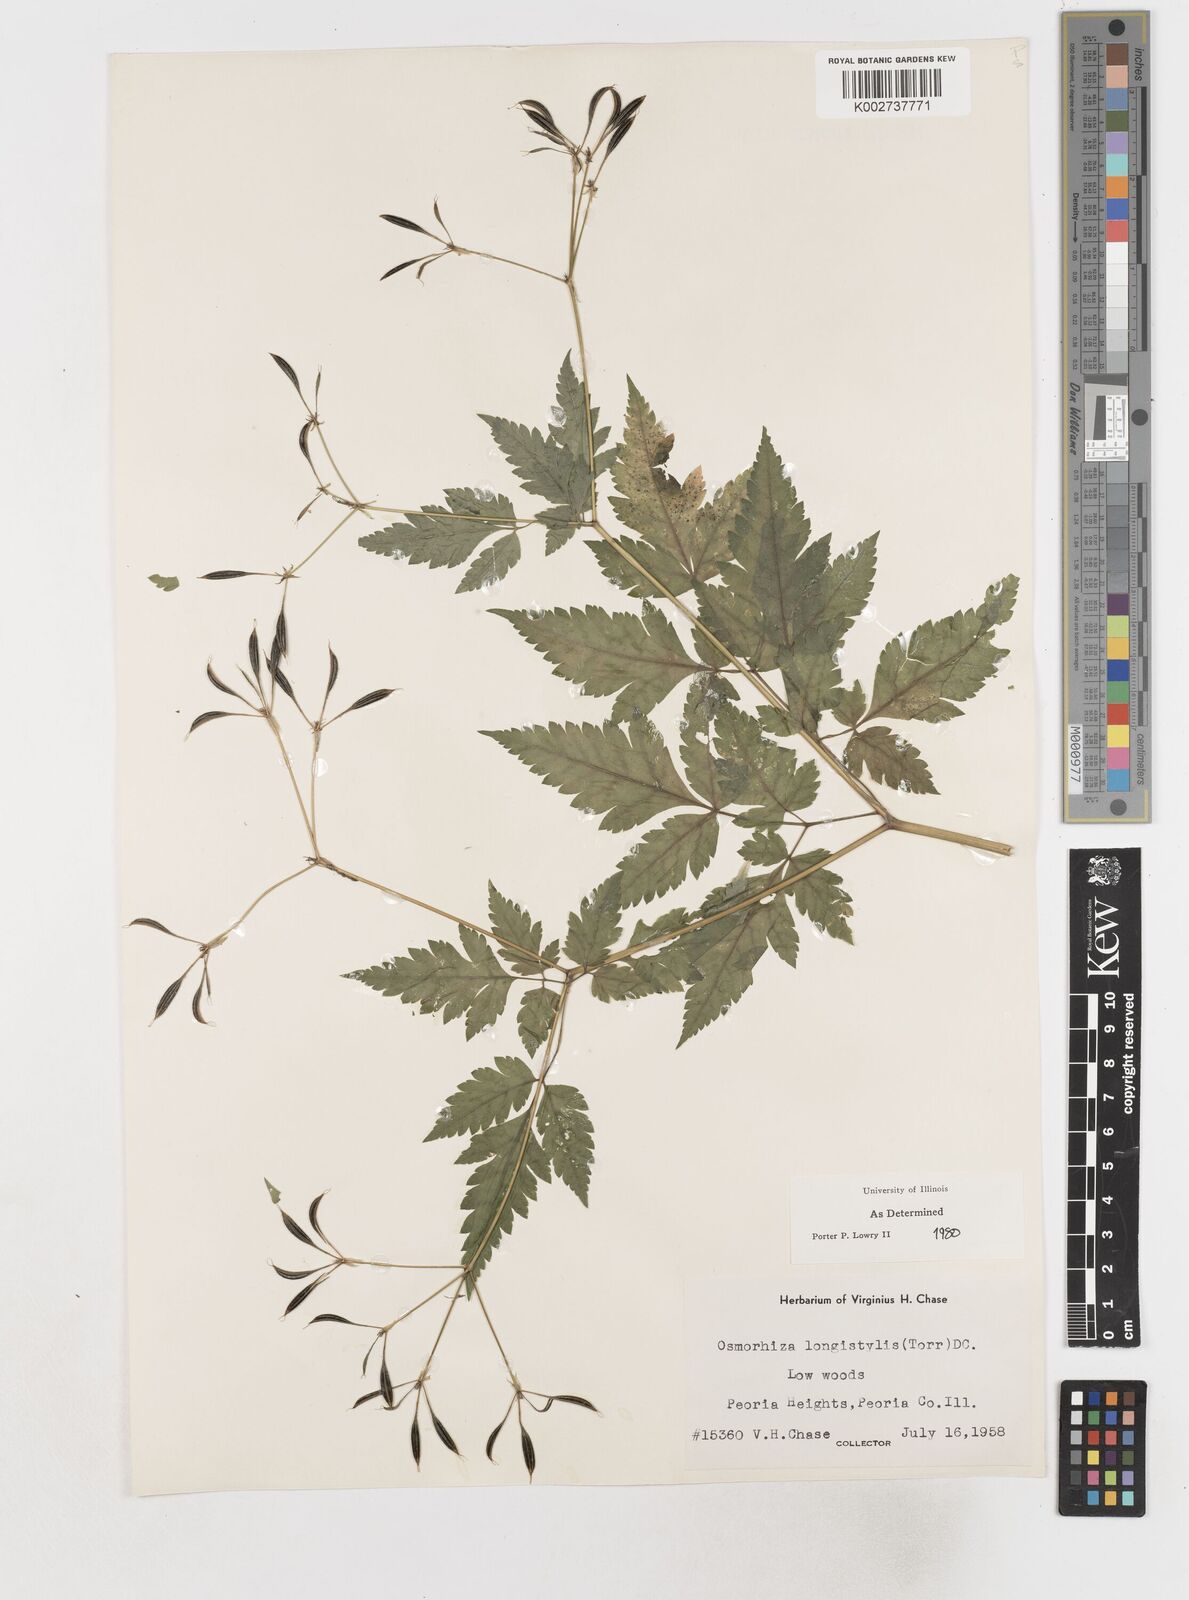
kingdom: Plantae
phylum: Tracheophyta
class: Magnoliopsida
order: Apiales
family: Apiaceae
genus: Osmorhiza
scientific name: Osmorhiza longistylis
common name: Smooth sweet cicely
